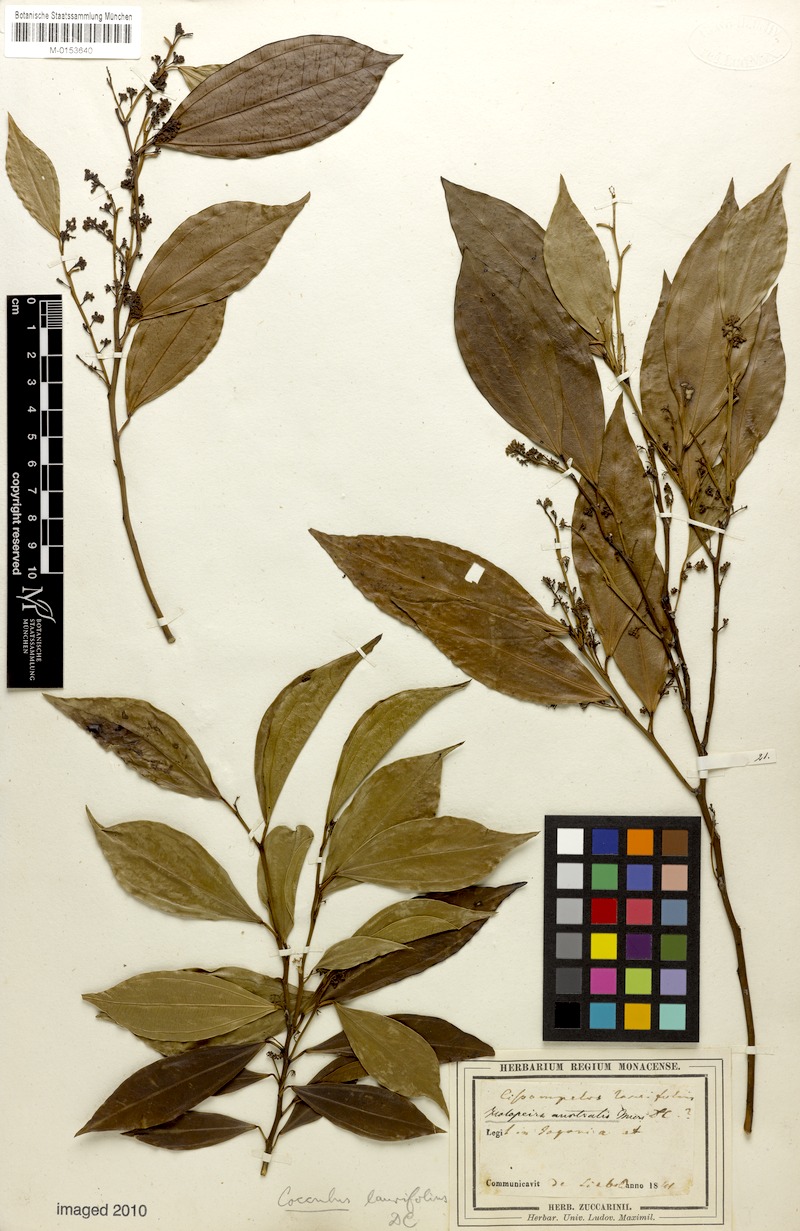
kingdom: Plantae
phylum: Tracheophyta
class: Magnoliopsida
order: Ranunculales
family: Menispermaceae
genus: Cocculus
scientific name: Cocculus laurifolius
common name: Laurel-leaf snailseed
